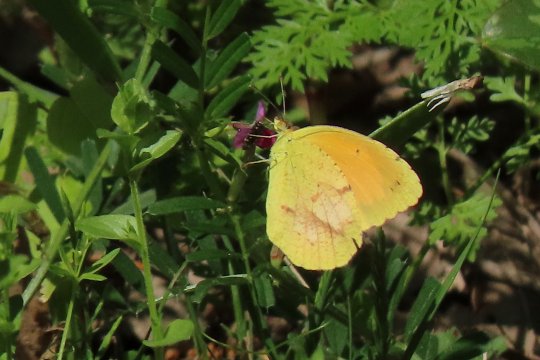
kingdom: Animalia
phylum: Arthropoda
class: Insecta
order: Lepidoptera
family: Pieridae
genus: Abaeis
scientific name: Abaeis nicippe
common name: Sleepy Orange
